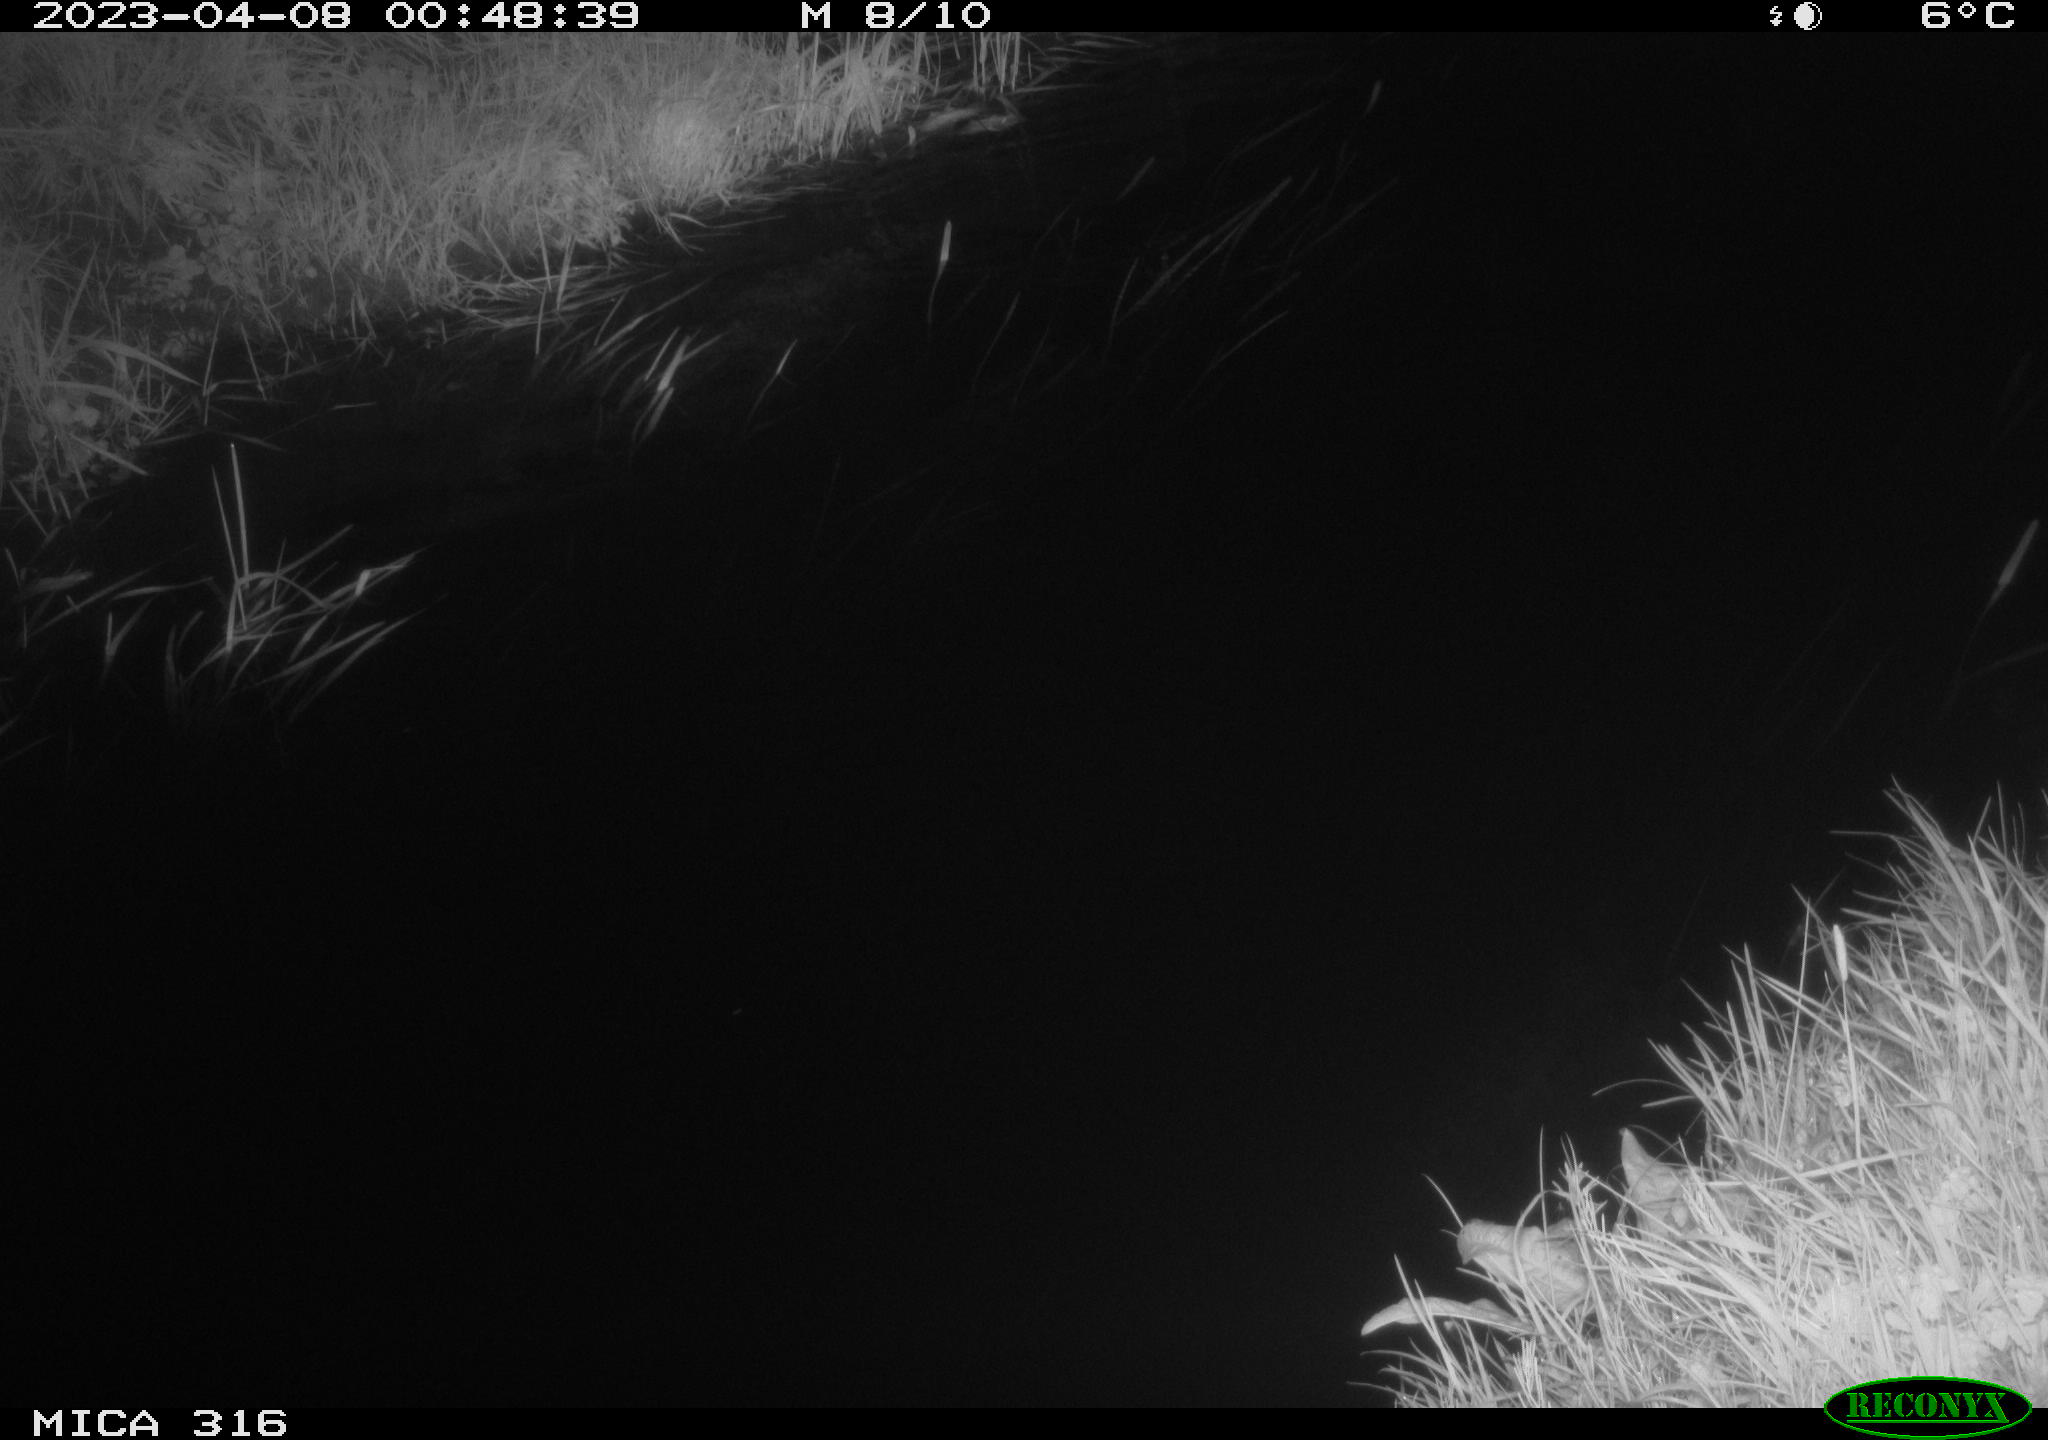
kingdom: Animalia
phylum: Chordata
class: Aves
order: Anseriformes
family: Anatidae
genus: Anas
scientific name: Anas
